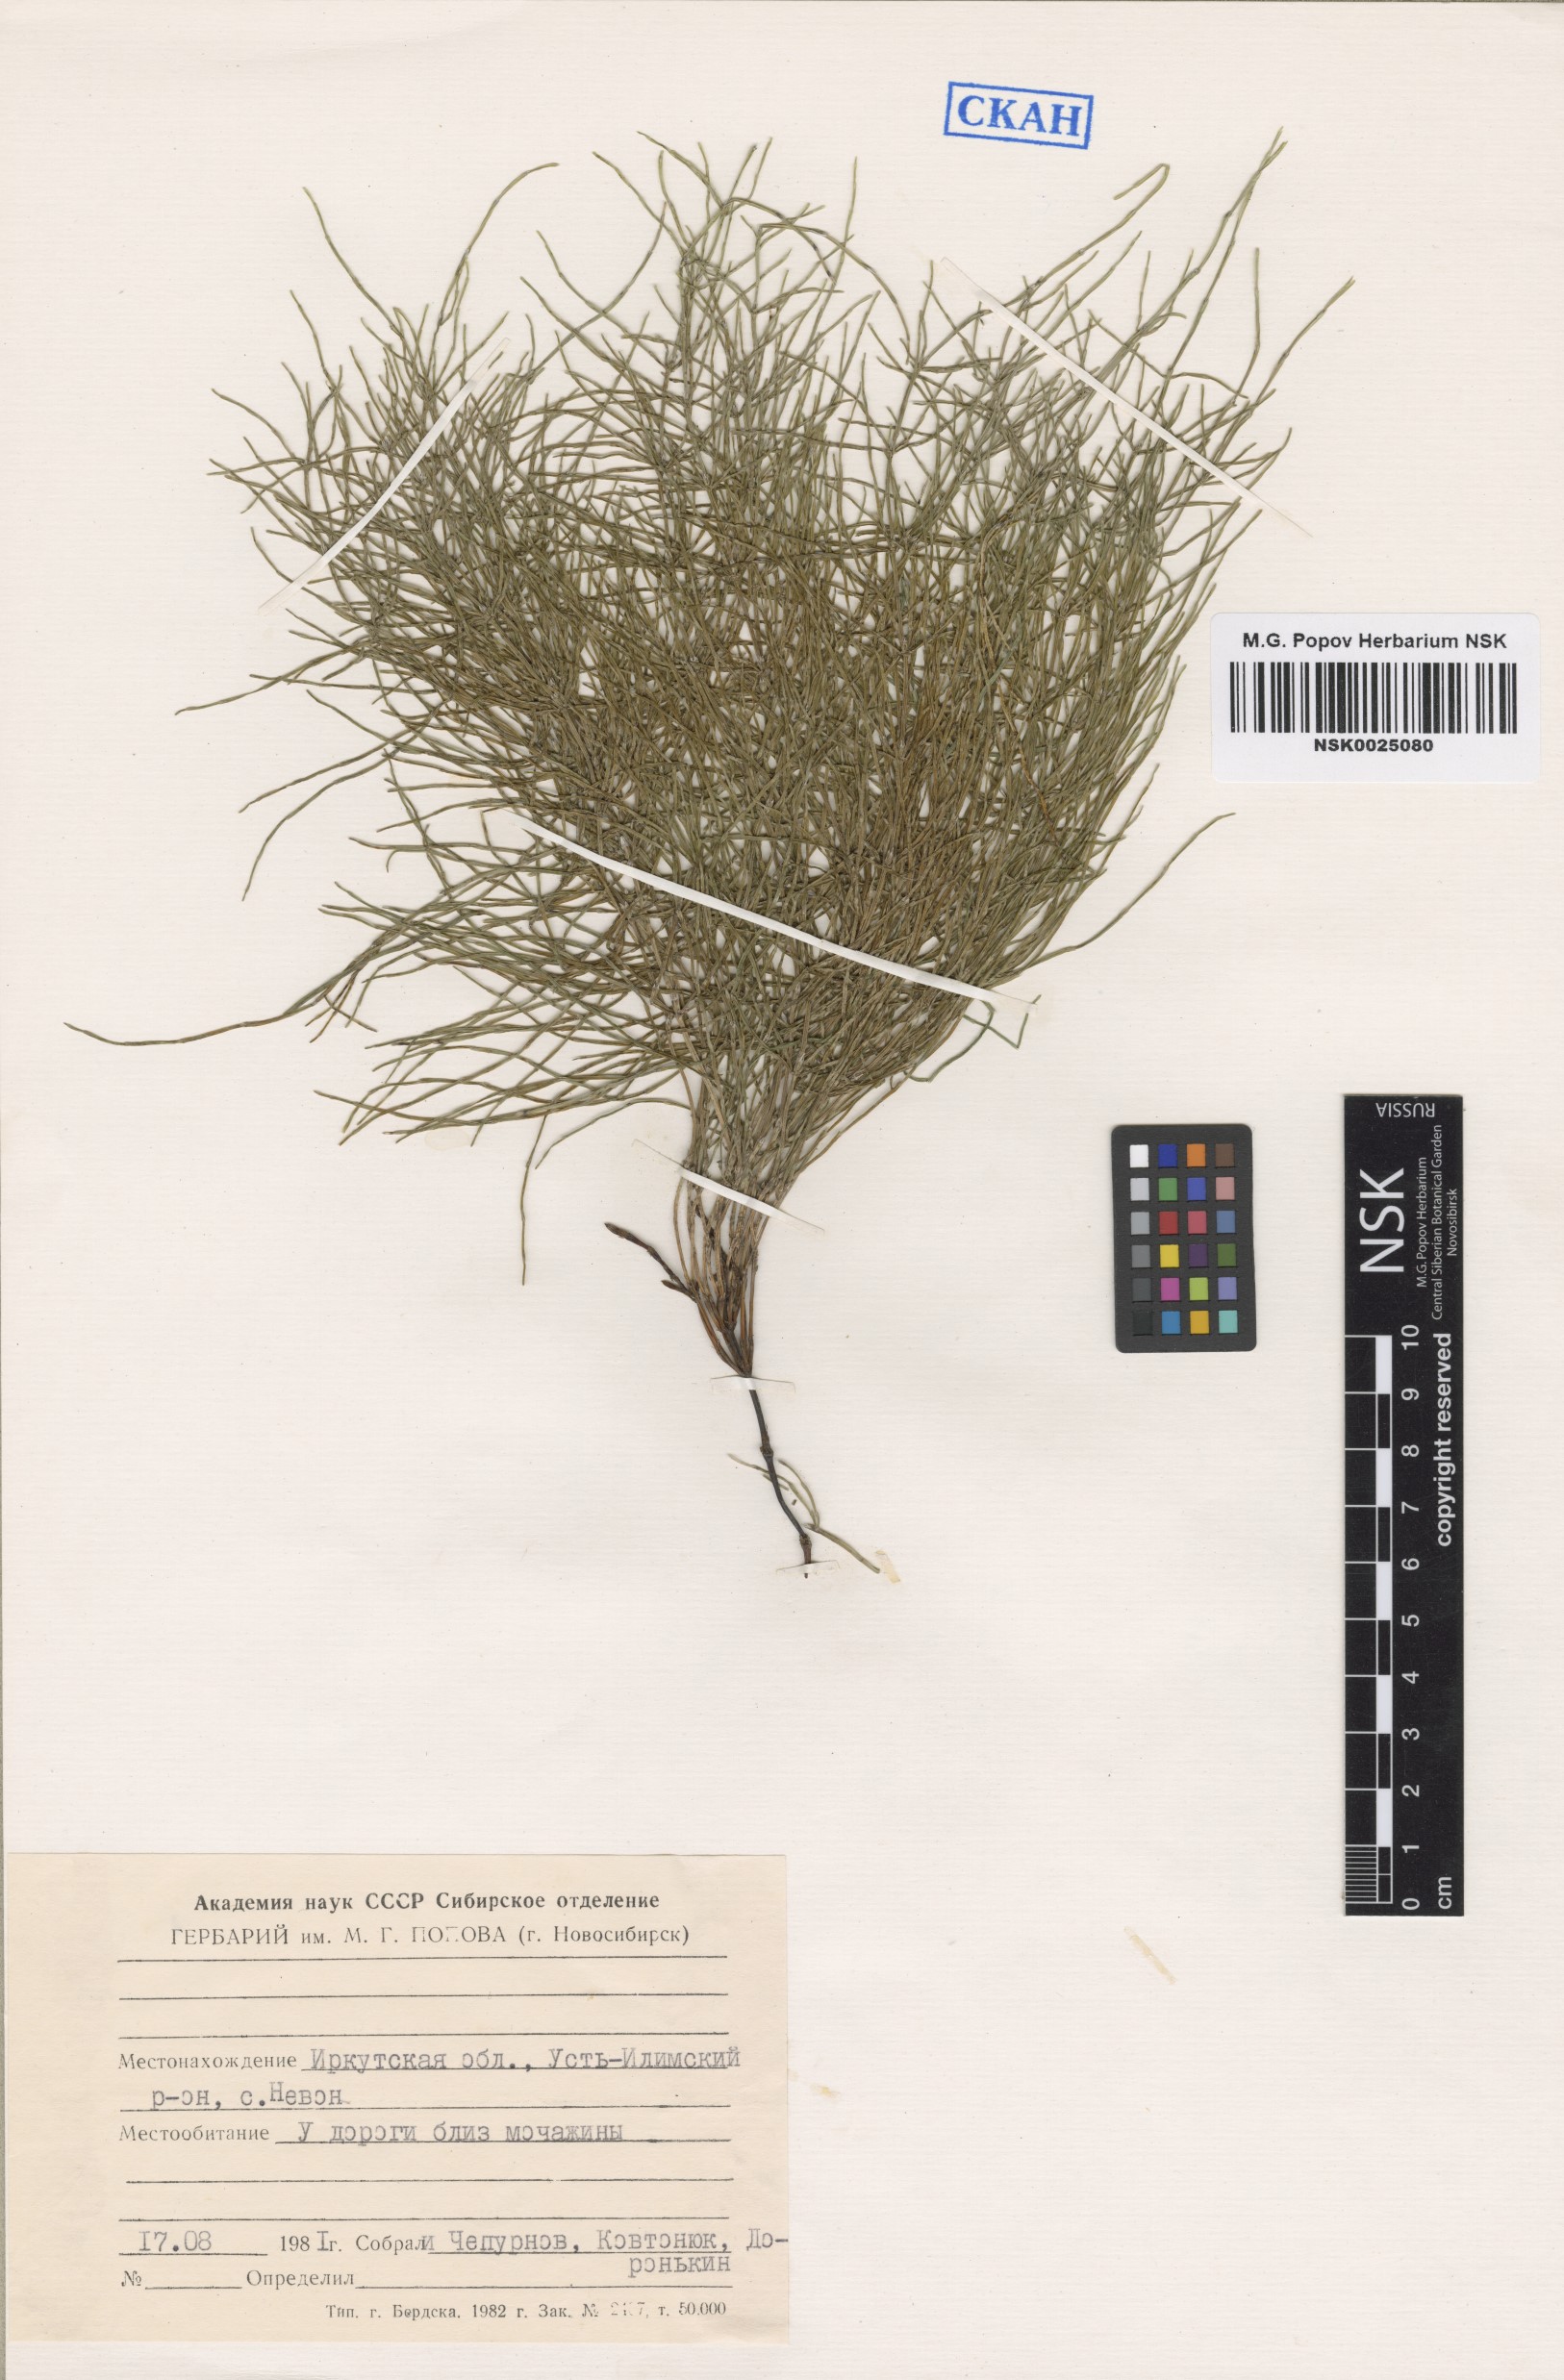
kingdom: Plantae
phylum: Tracheophyta
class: Polypodiopsida
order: Equisetales
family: Equisetaceae
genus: Equisetum
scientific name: Equisetum
